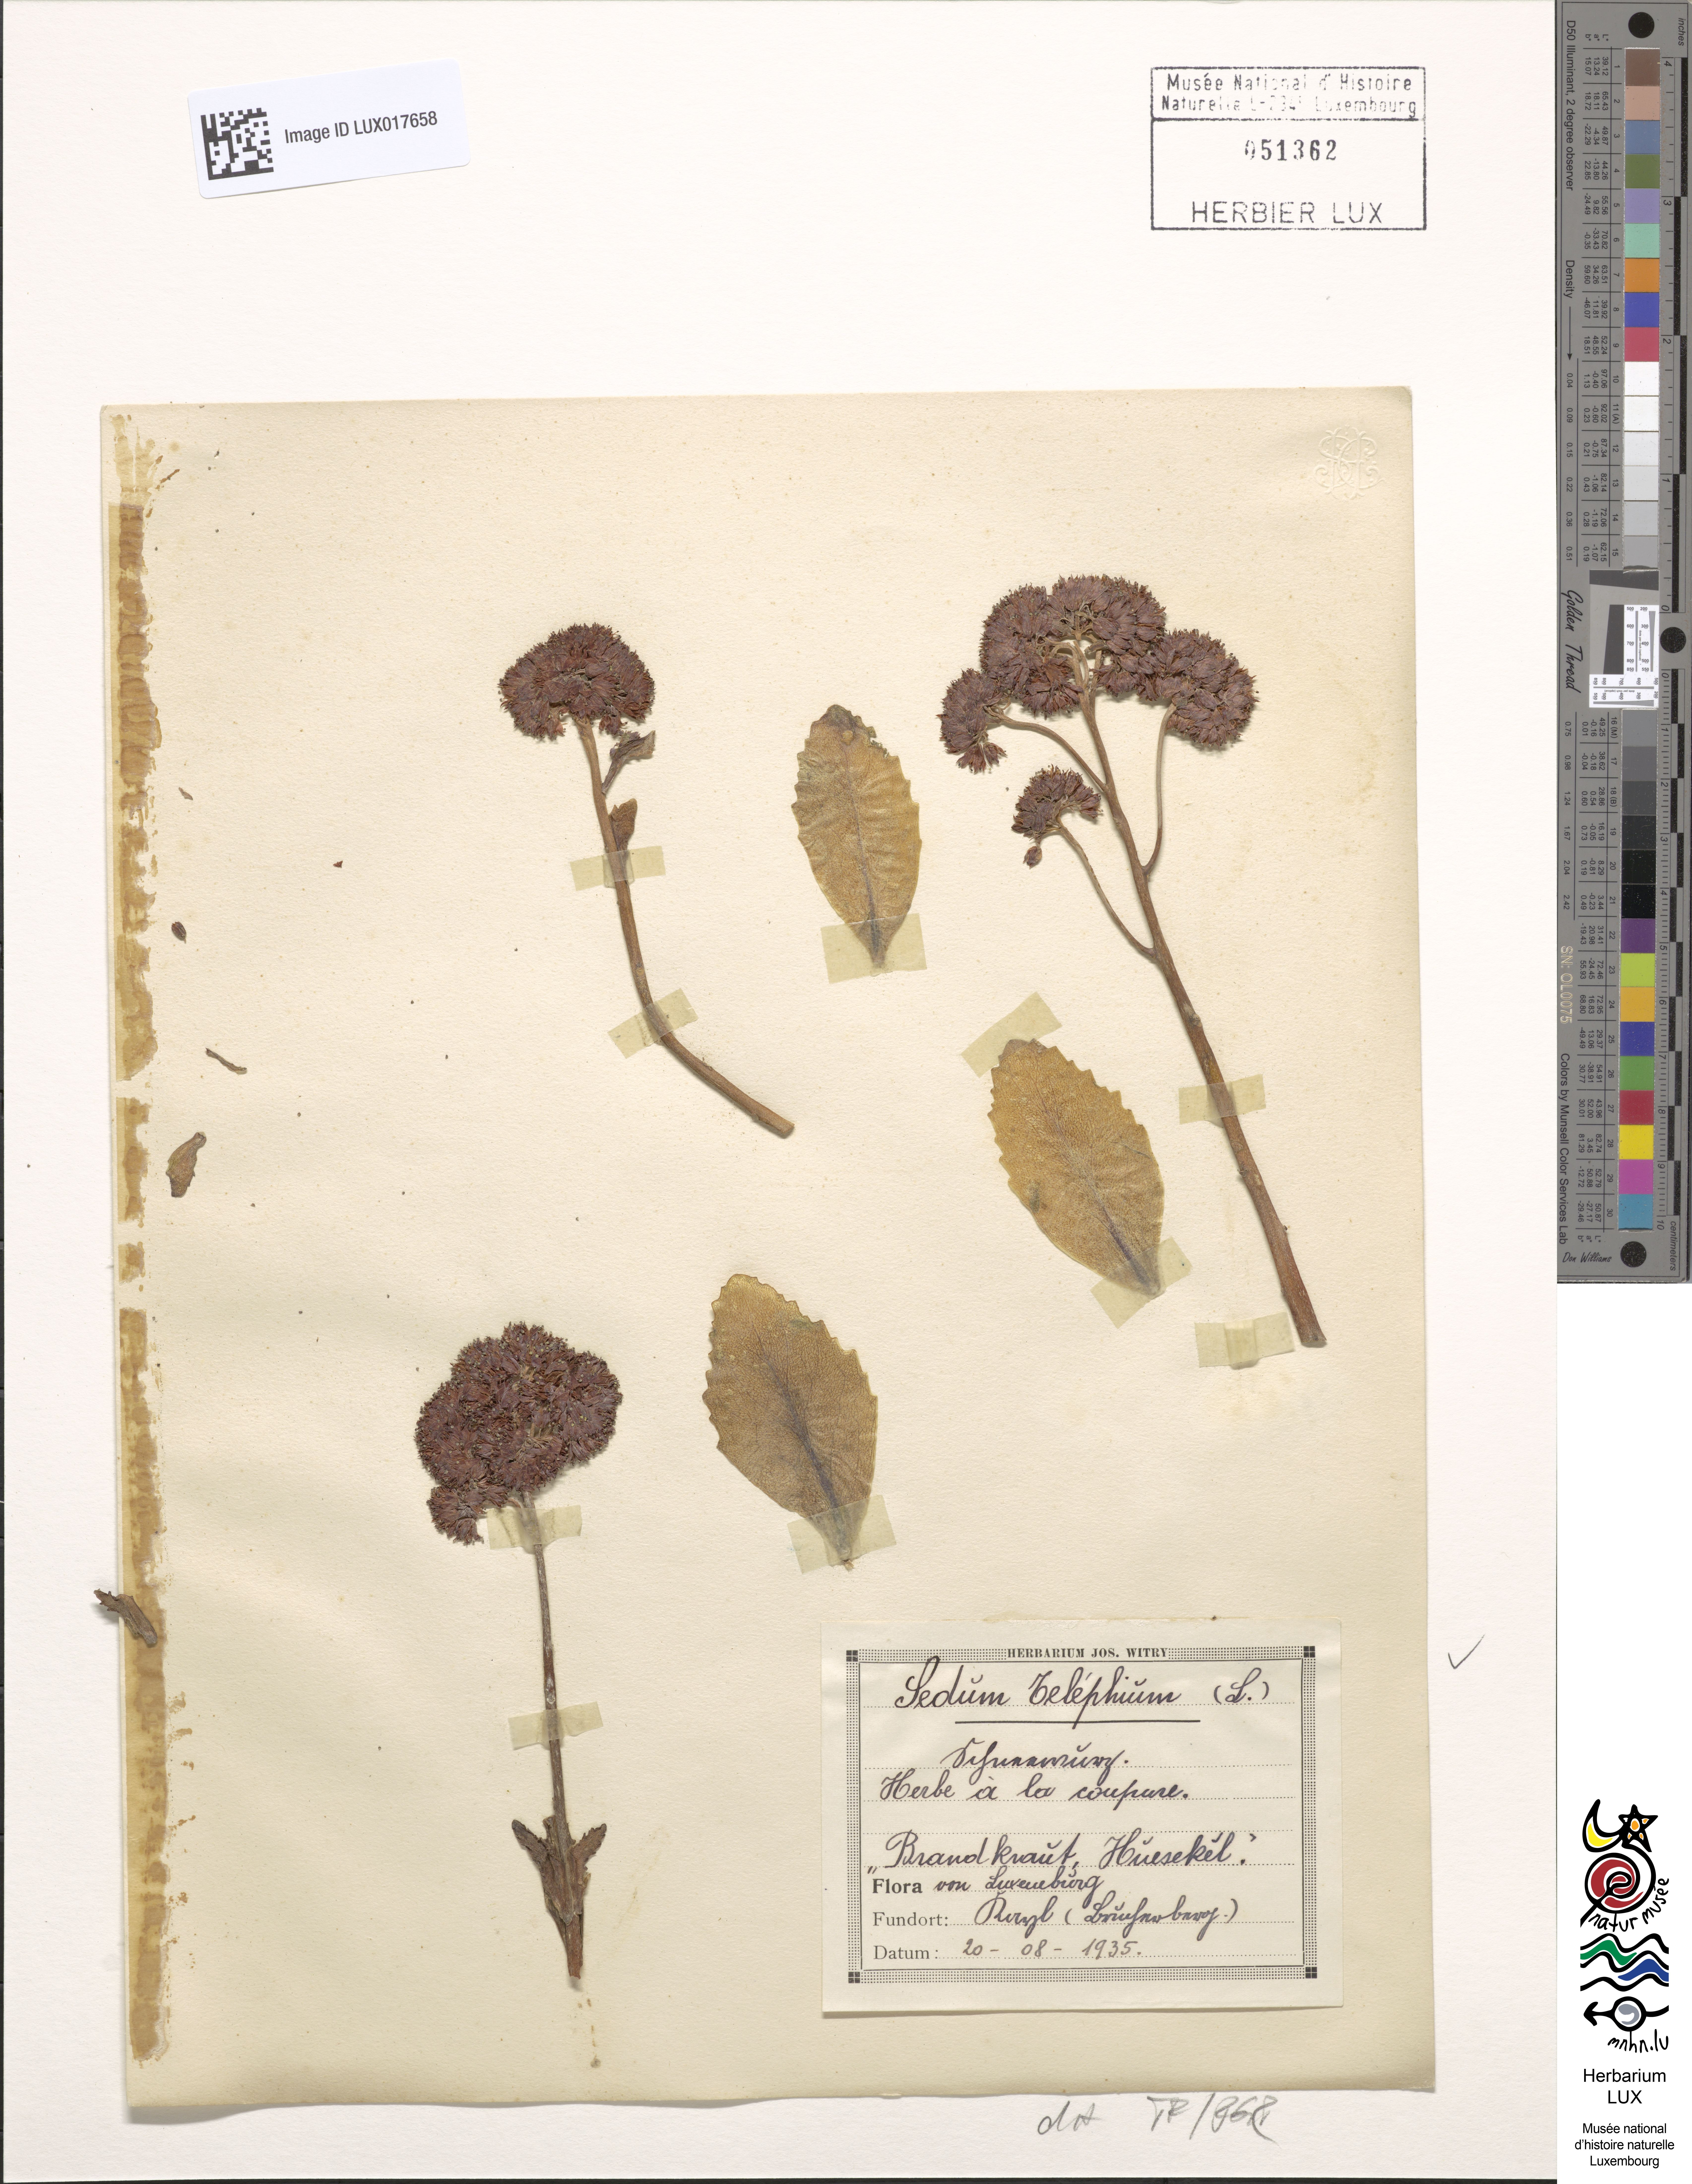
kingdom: Plantae
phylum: Tracheophyta
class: Magnoliopsida
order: Saxifragales
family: Crassulaceae
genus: Hylotelephium
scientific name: Hylotelephium telephium
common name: Live-forever
